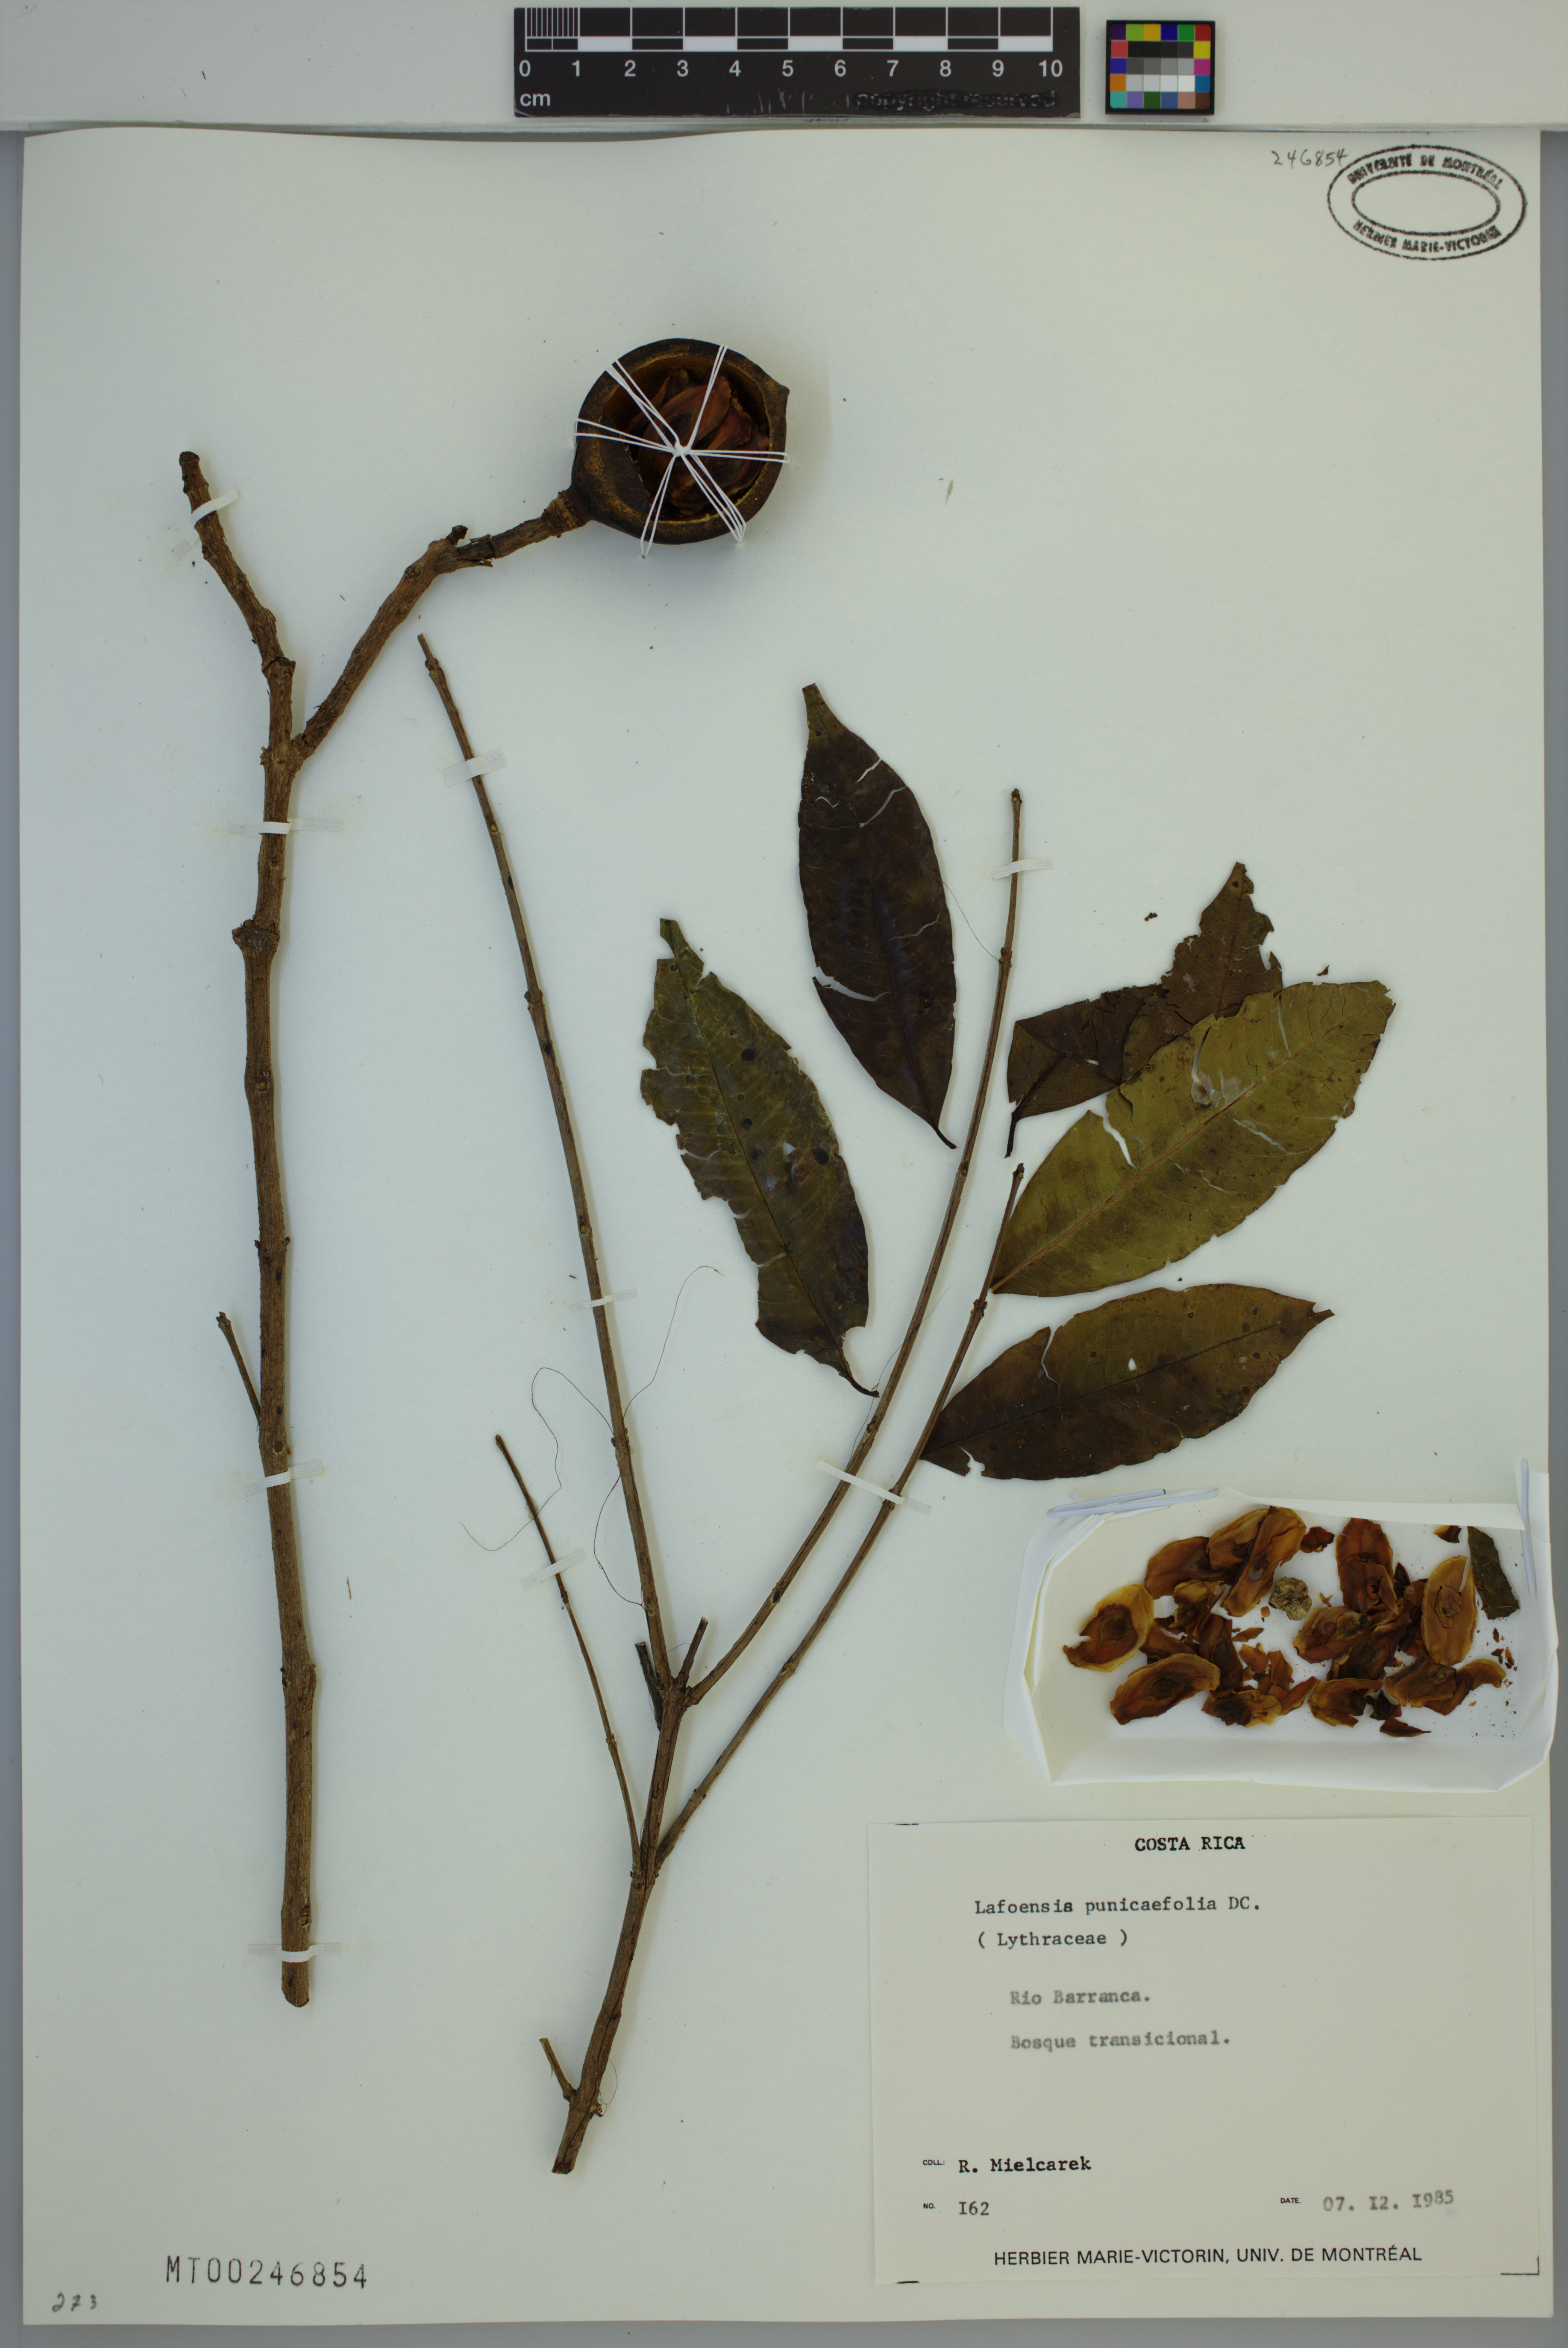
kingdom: Plantae
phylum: Tracheophyta
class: Magnoliopsida
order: Myrtales
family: Lythraceae
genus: Lafoensia
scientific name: Lafoensia punicifolia
